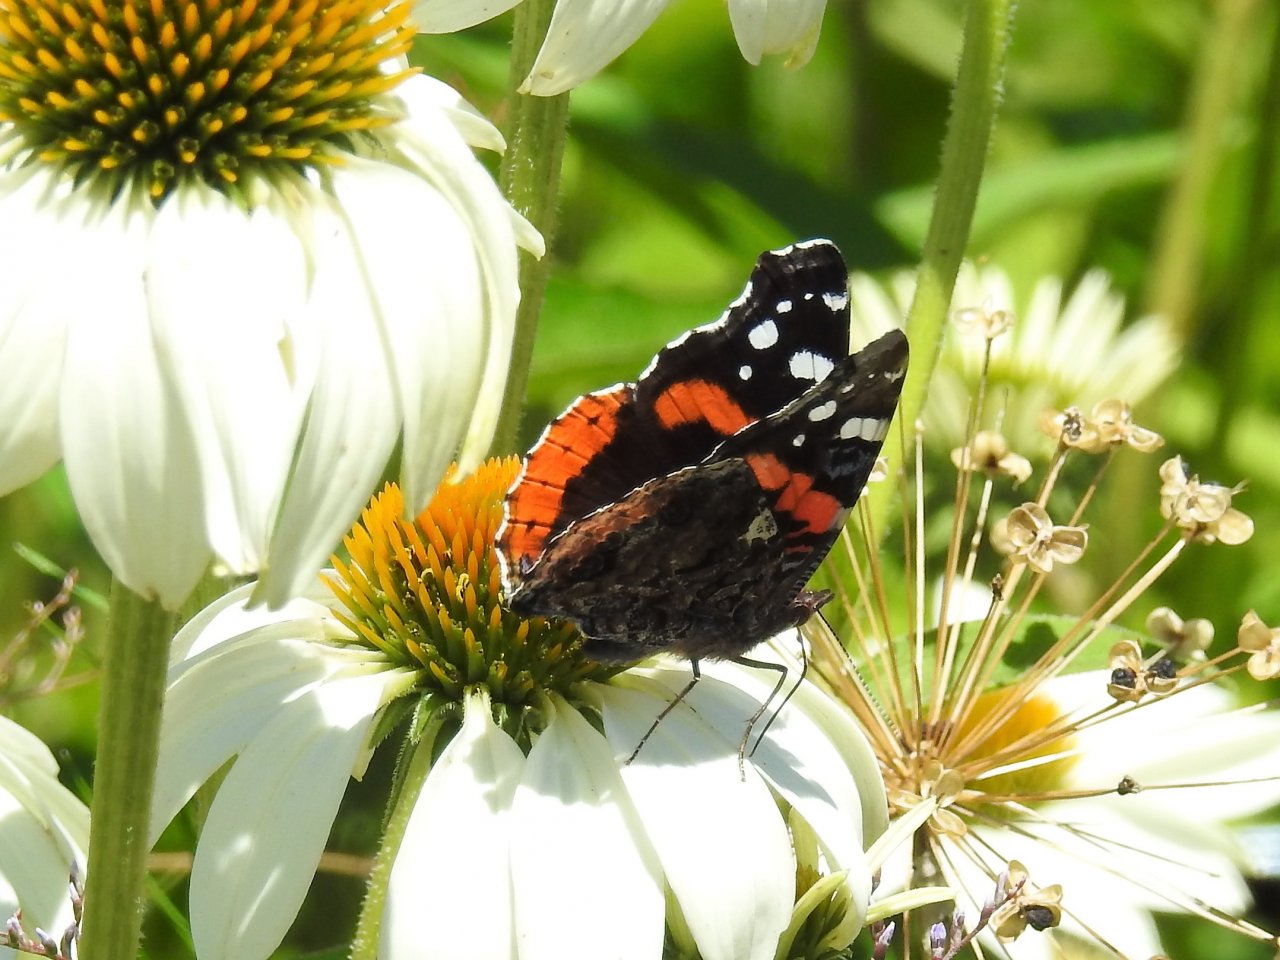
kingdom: Animalia
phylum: Arthropoda
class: Insecta
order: Lepidoptera
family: Nymphalidae
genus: Vanessa
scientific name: Vanessa atalanta
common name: Red Admiral
